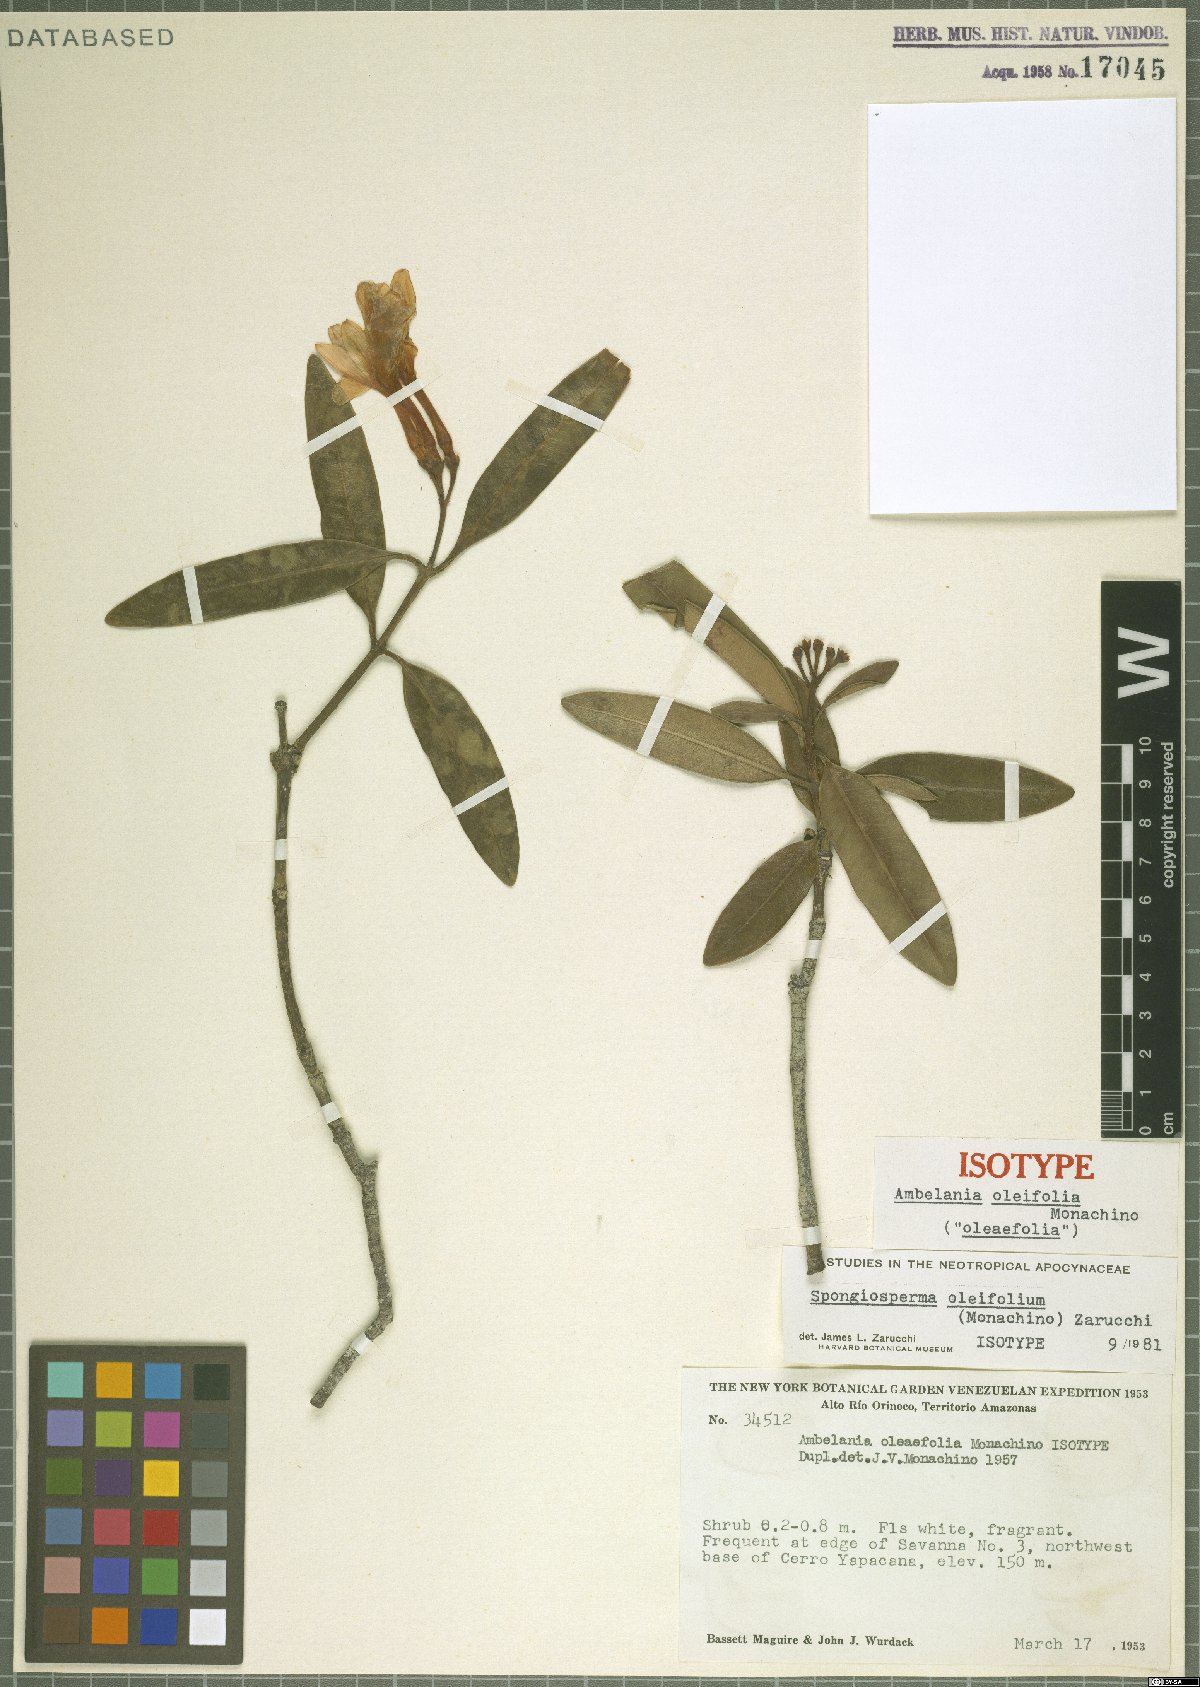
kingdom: Plantae
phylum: Tracheophyta
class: Magnoliopsida
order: Gentianales
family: Apocynaceae
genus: Spongiosperma
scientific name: Spongiosperma oleifolium
